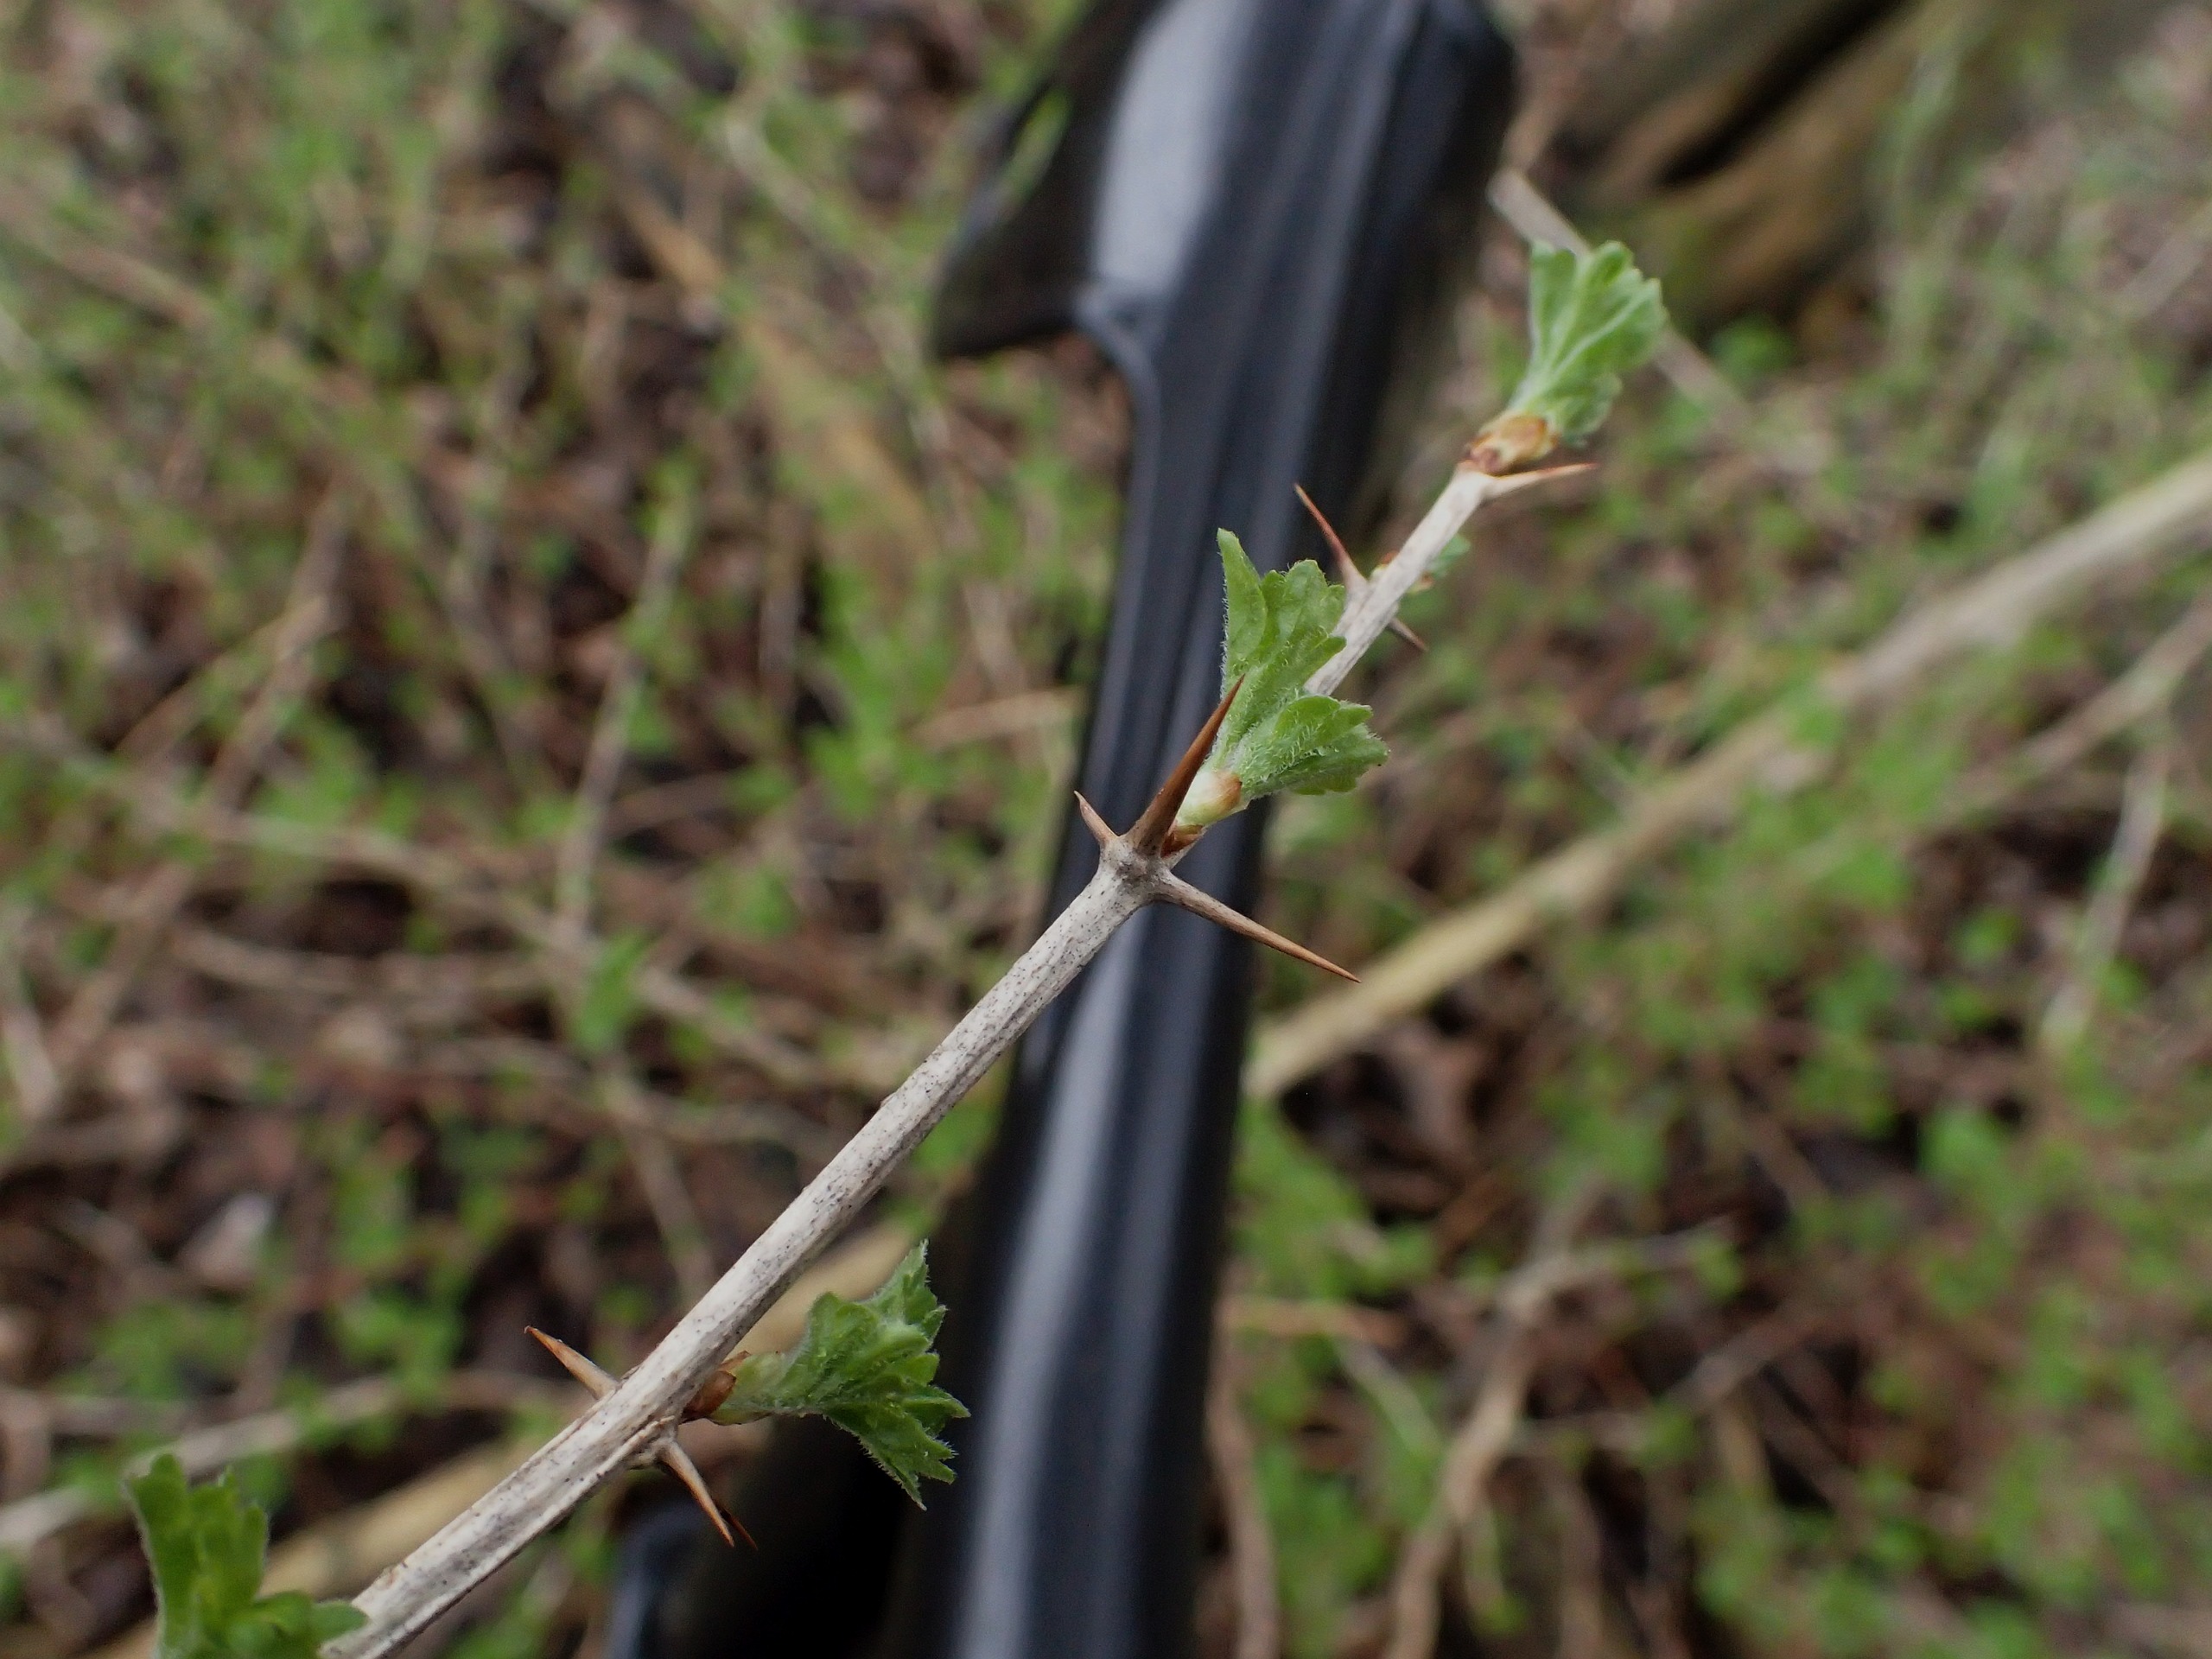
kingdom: Plantae
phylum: Tracheophyta
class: Magnoliopsida
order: Saxifragales
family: Grossulariaceae
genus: Ribes
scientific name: Ribes uva-crispa
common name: Stikkelsbær
